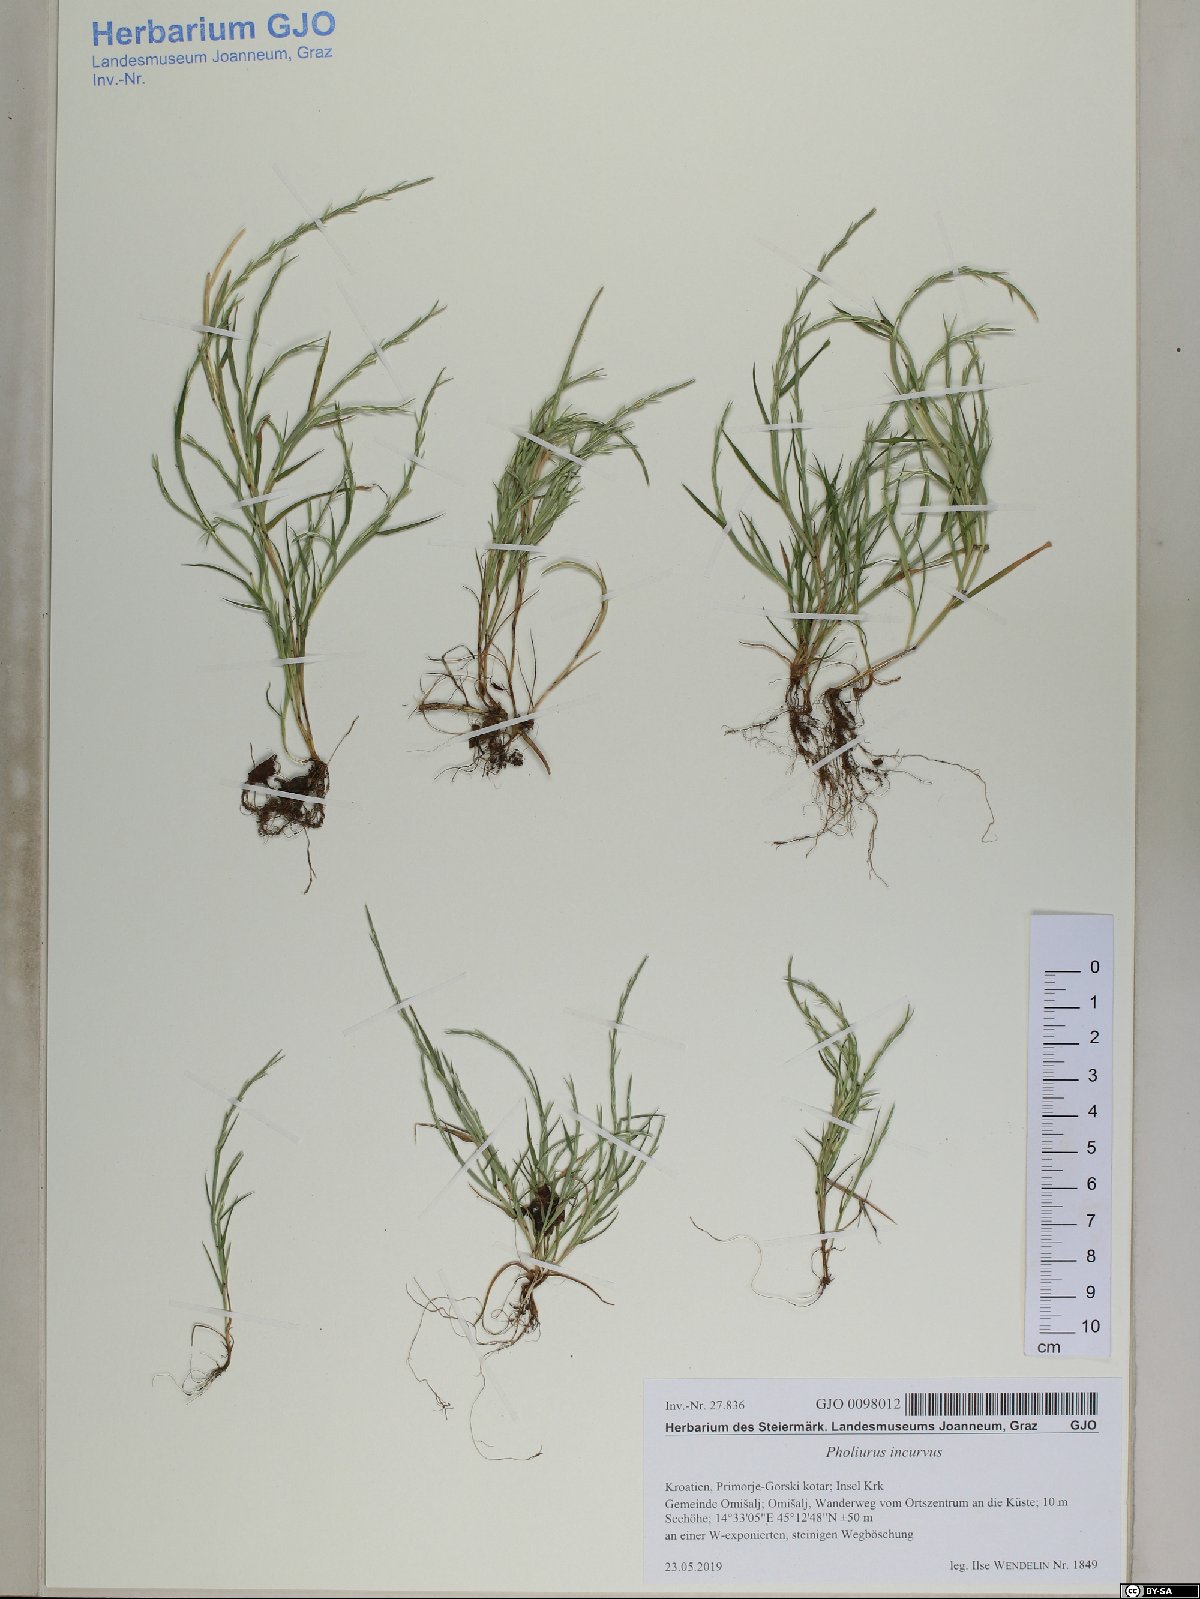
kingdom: Plantae
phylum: Tracheophyta
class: Liliopsida
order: Poales
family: Poaceae
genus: Parapholis
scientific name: Parapholis incurva
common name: Curved sicklegrass
